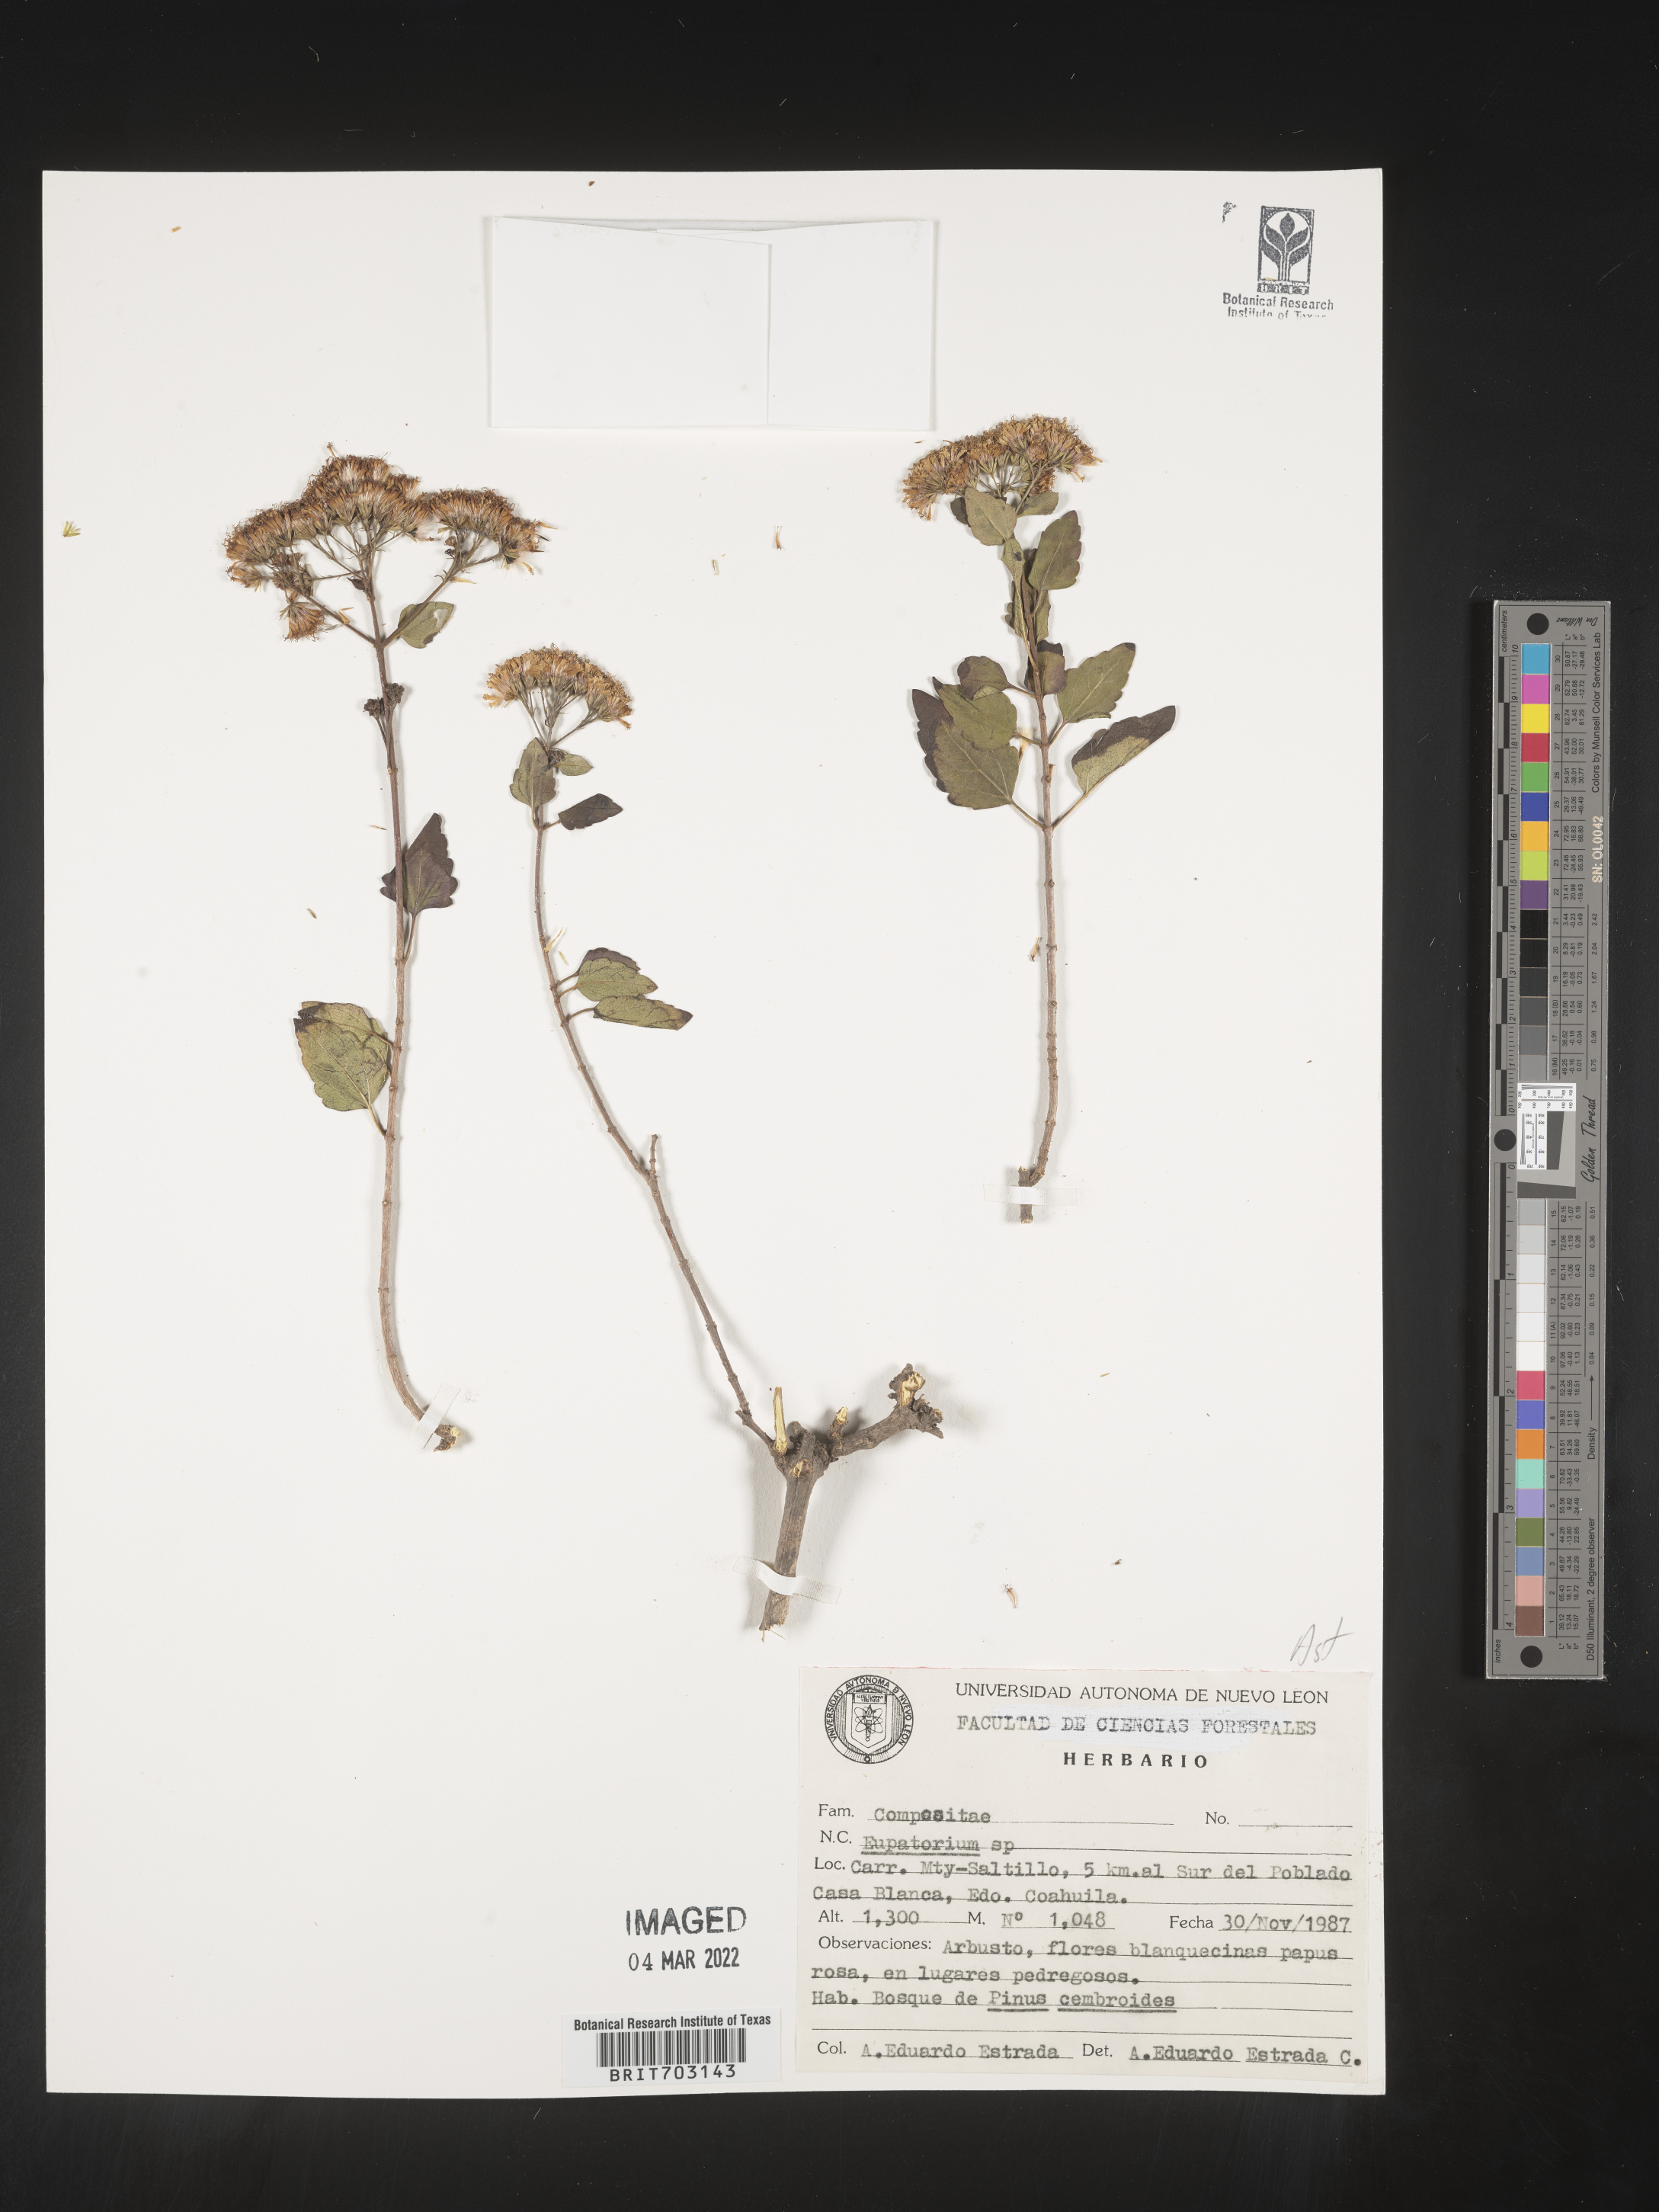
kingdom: Plantae
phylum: Tracheophyta
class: Magnoliopsida
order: Asterales
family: Asteraceae
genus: Eupatorium
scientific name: Eupatorium
